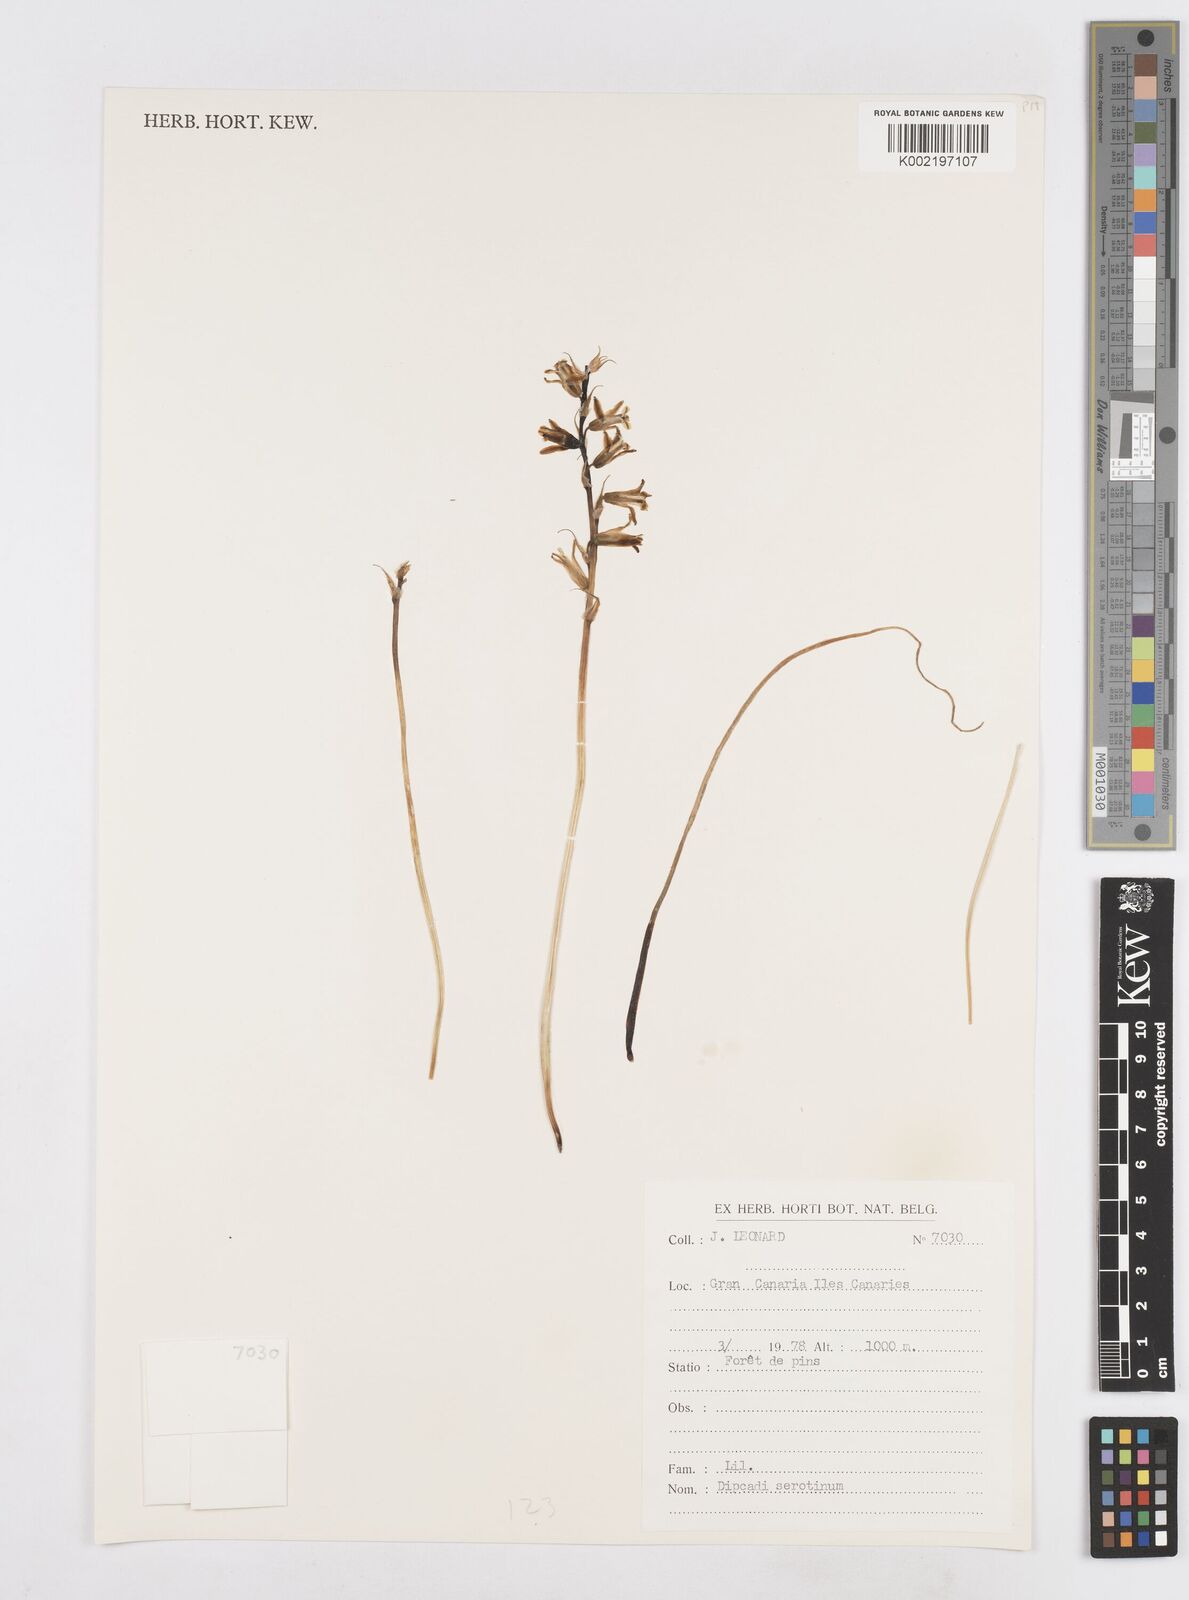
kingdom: Plantae
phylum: Tracheophyta
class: Liliopsida
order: Asparagales
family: Asparagaceae
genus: Dipcadi
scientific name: Dipcadi serotinum
